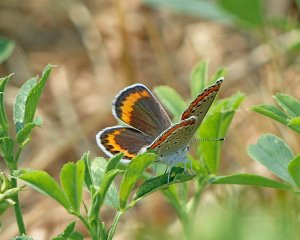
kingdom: Animalia
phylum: Arthropoda
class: Insecta
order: Lepidoptera
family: Lycaenidae
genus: Lycaeides
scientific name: Lycaeides melissa
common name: Melissa Blue
